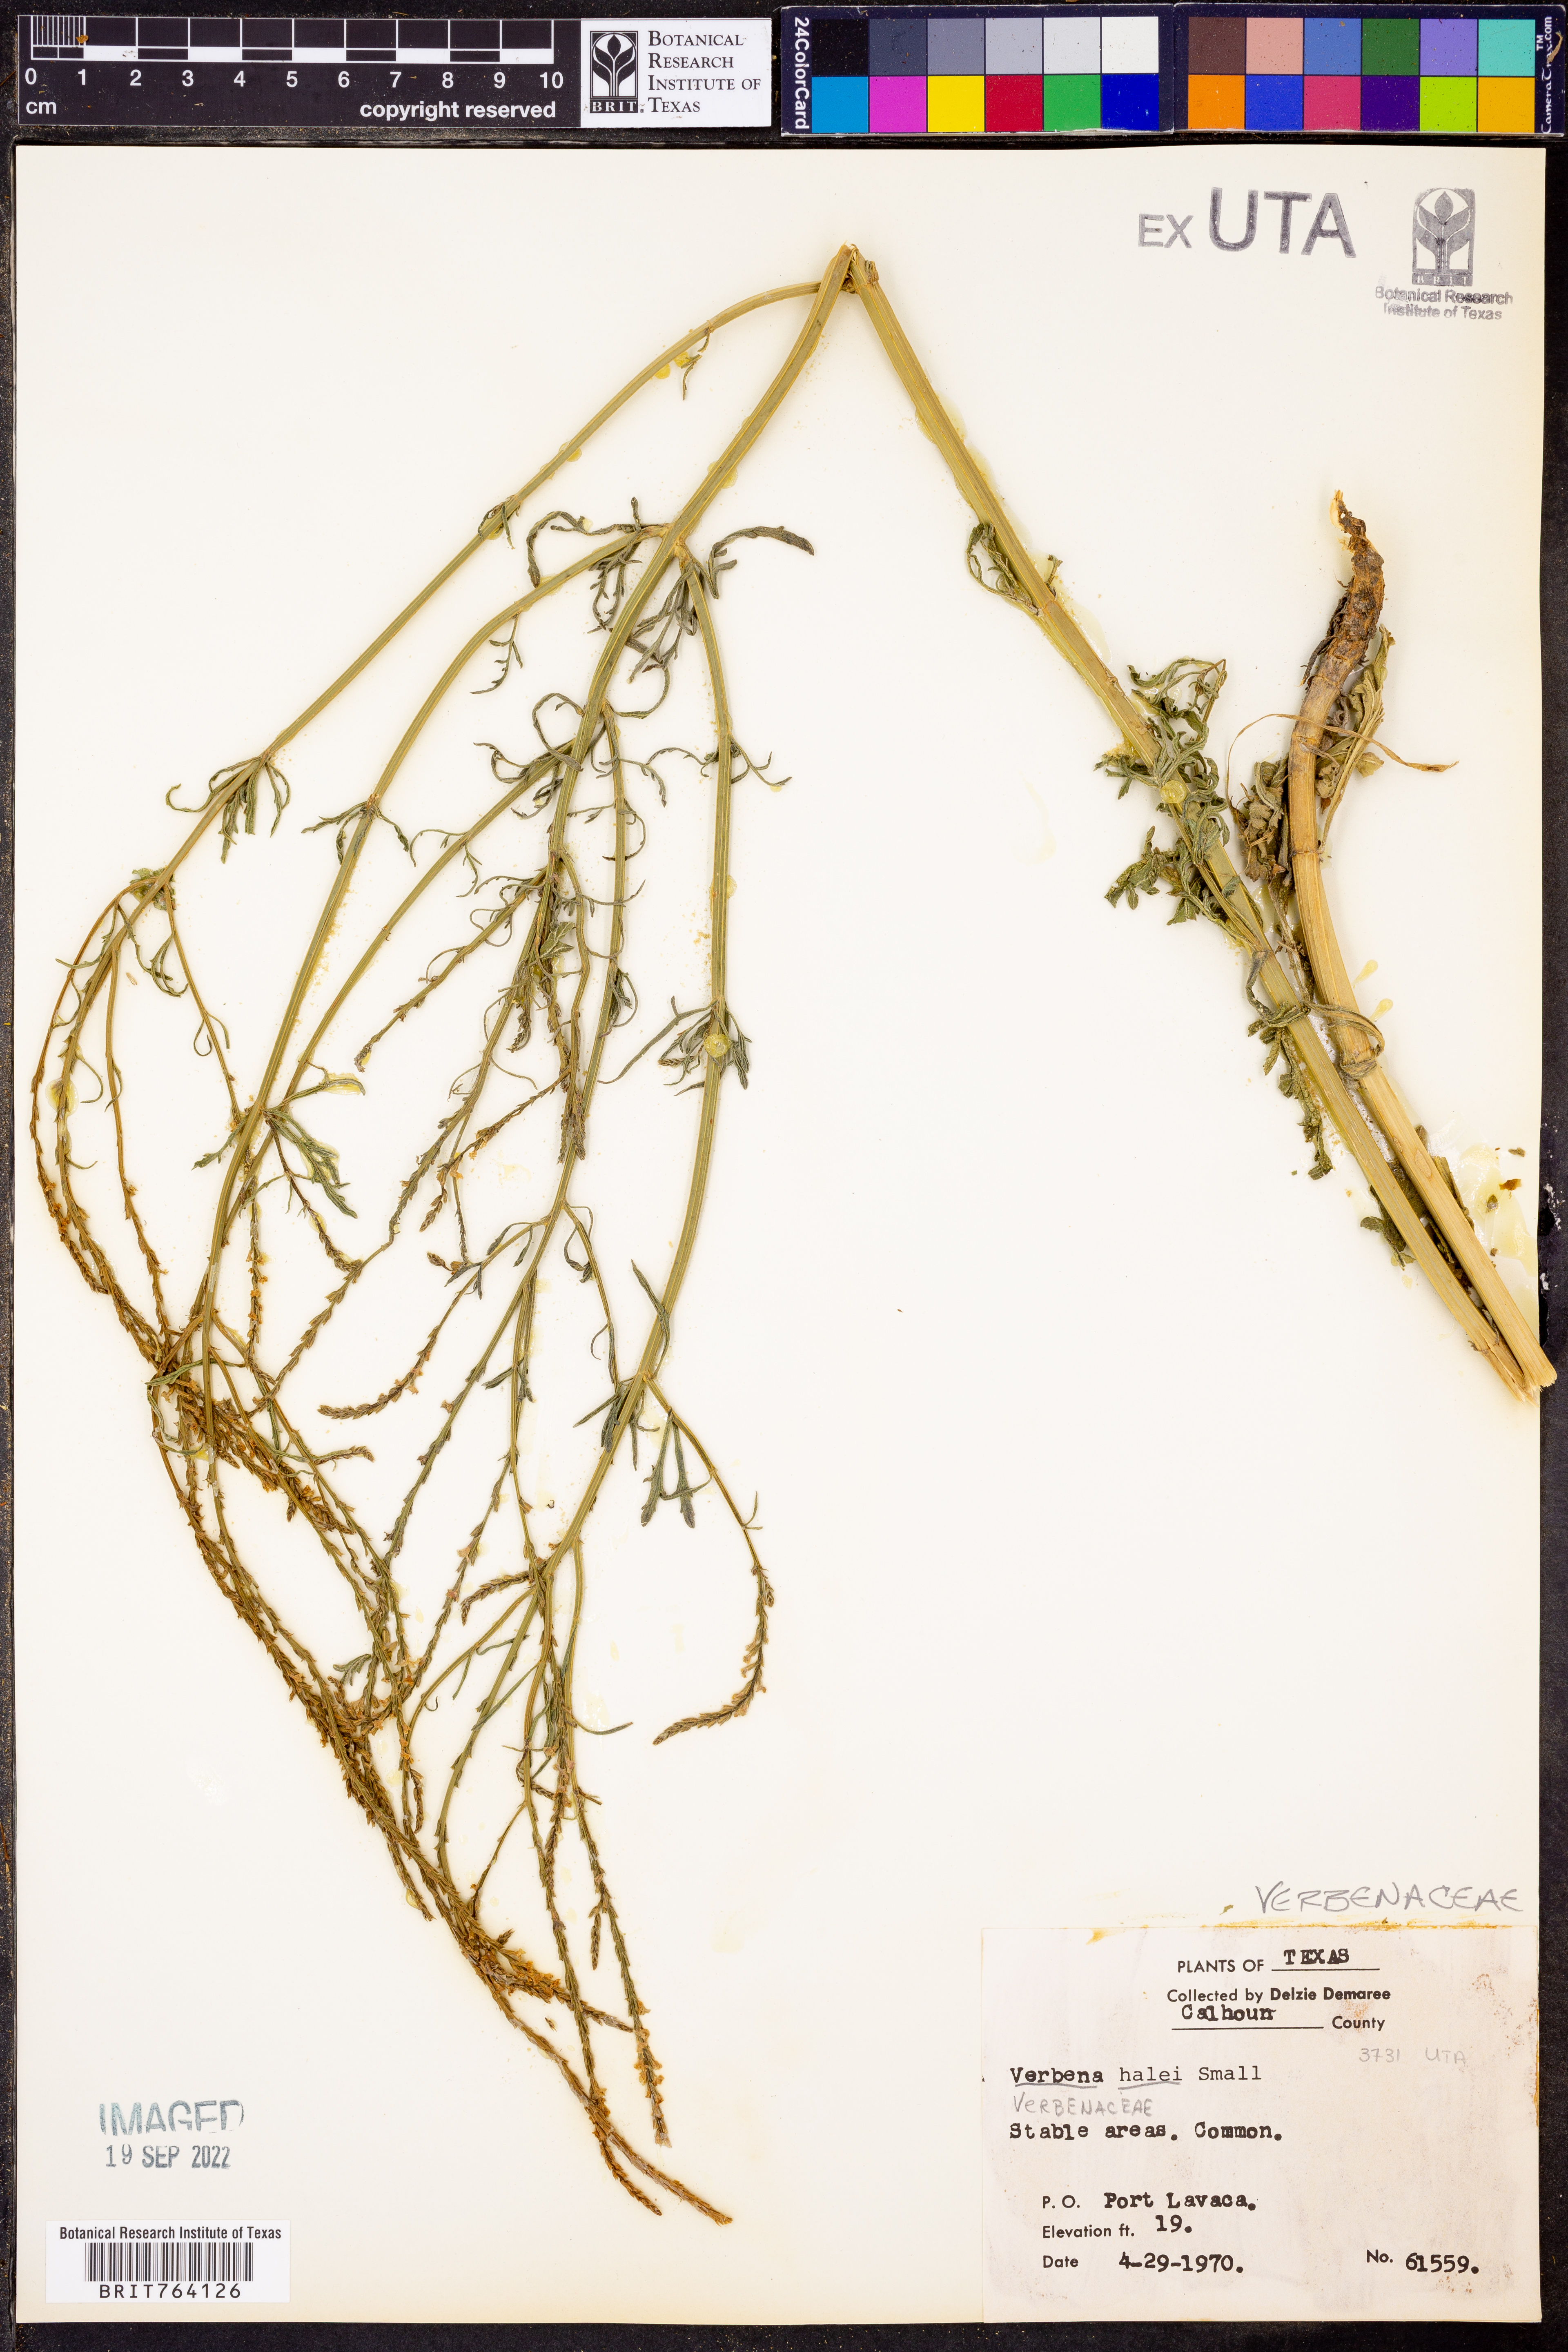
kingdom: Plantae
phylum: Tracheophyta
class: Magnoliopsida
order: Lamiales
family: Verbenaceae
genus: Verbena
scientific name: Verbena halei
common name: Texas vervain
